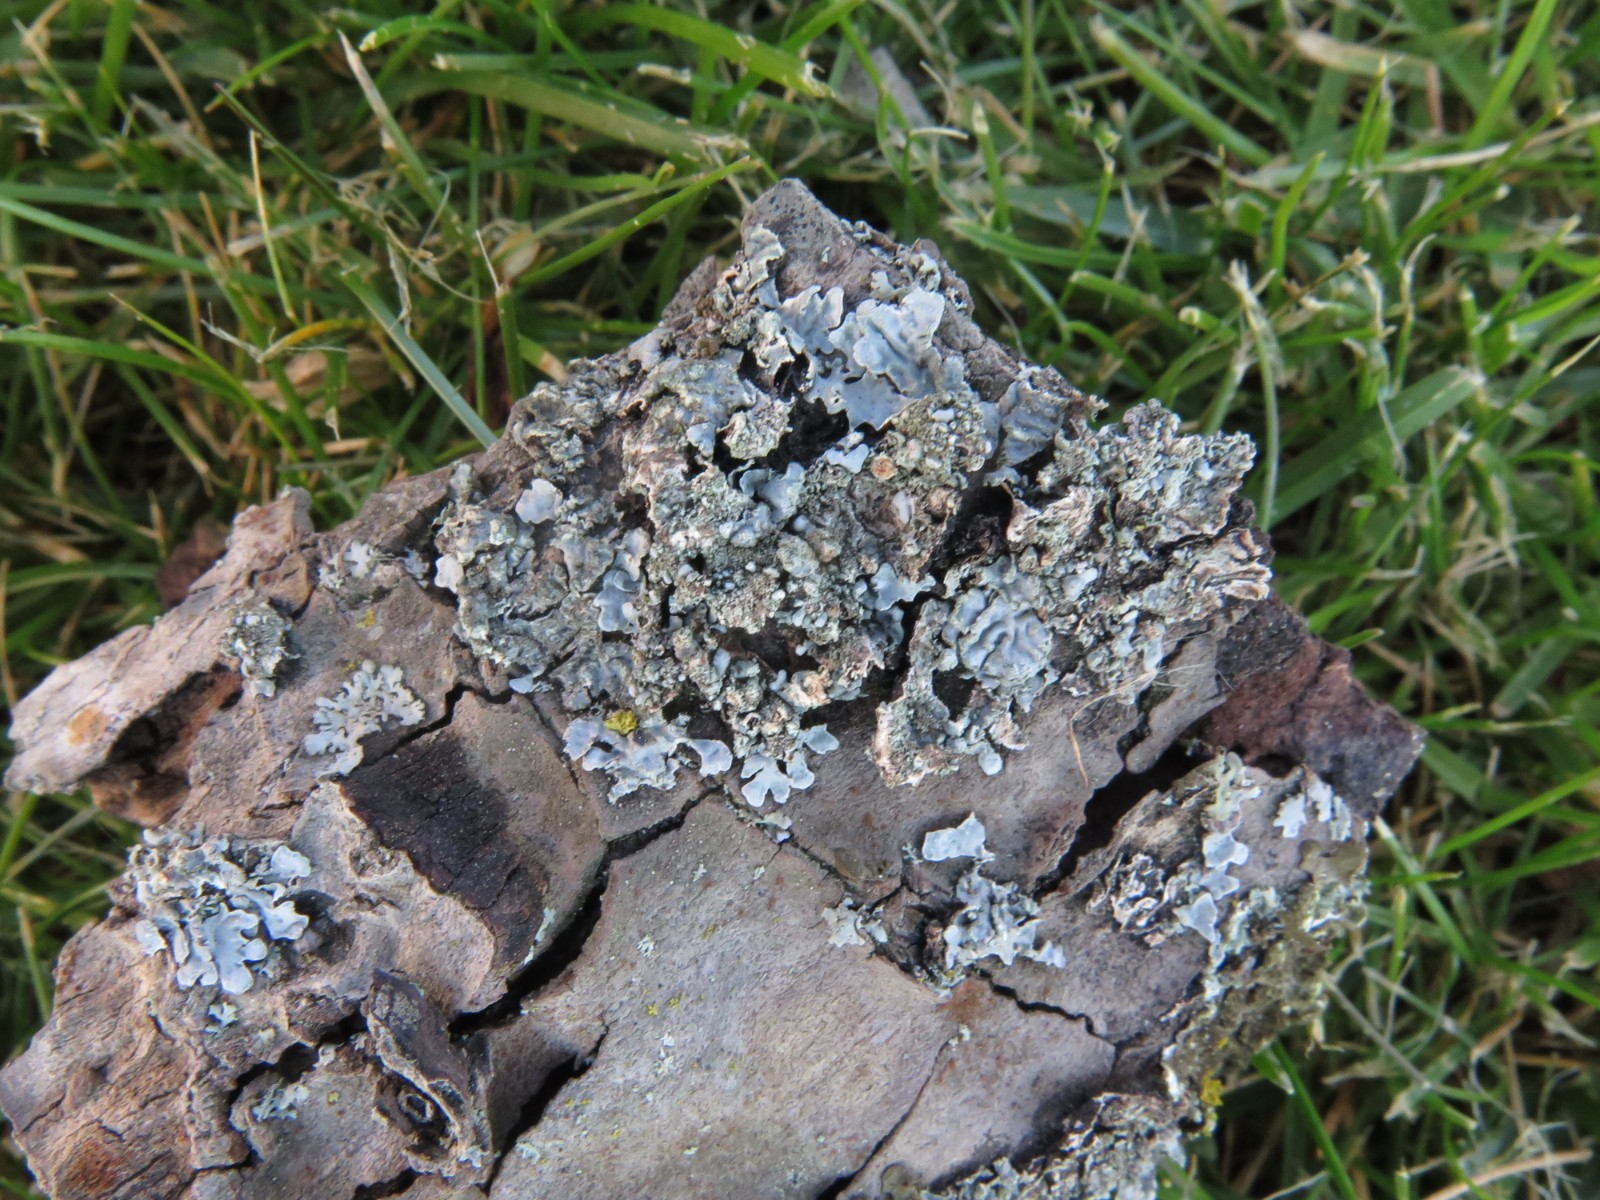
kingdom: Fungi
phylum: Ascomycota
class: Lecanoromycetes
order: Lecanorales
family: Parmeliaceae
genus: Parmelia
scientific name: Parmelia sulcata
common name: rynket skållav
